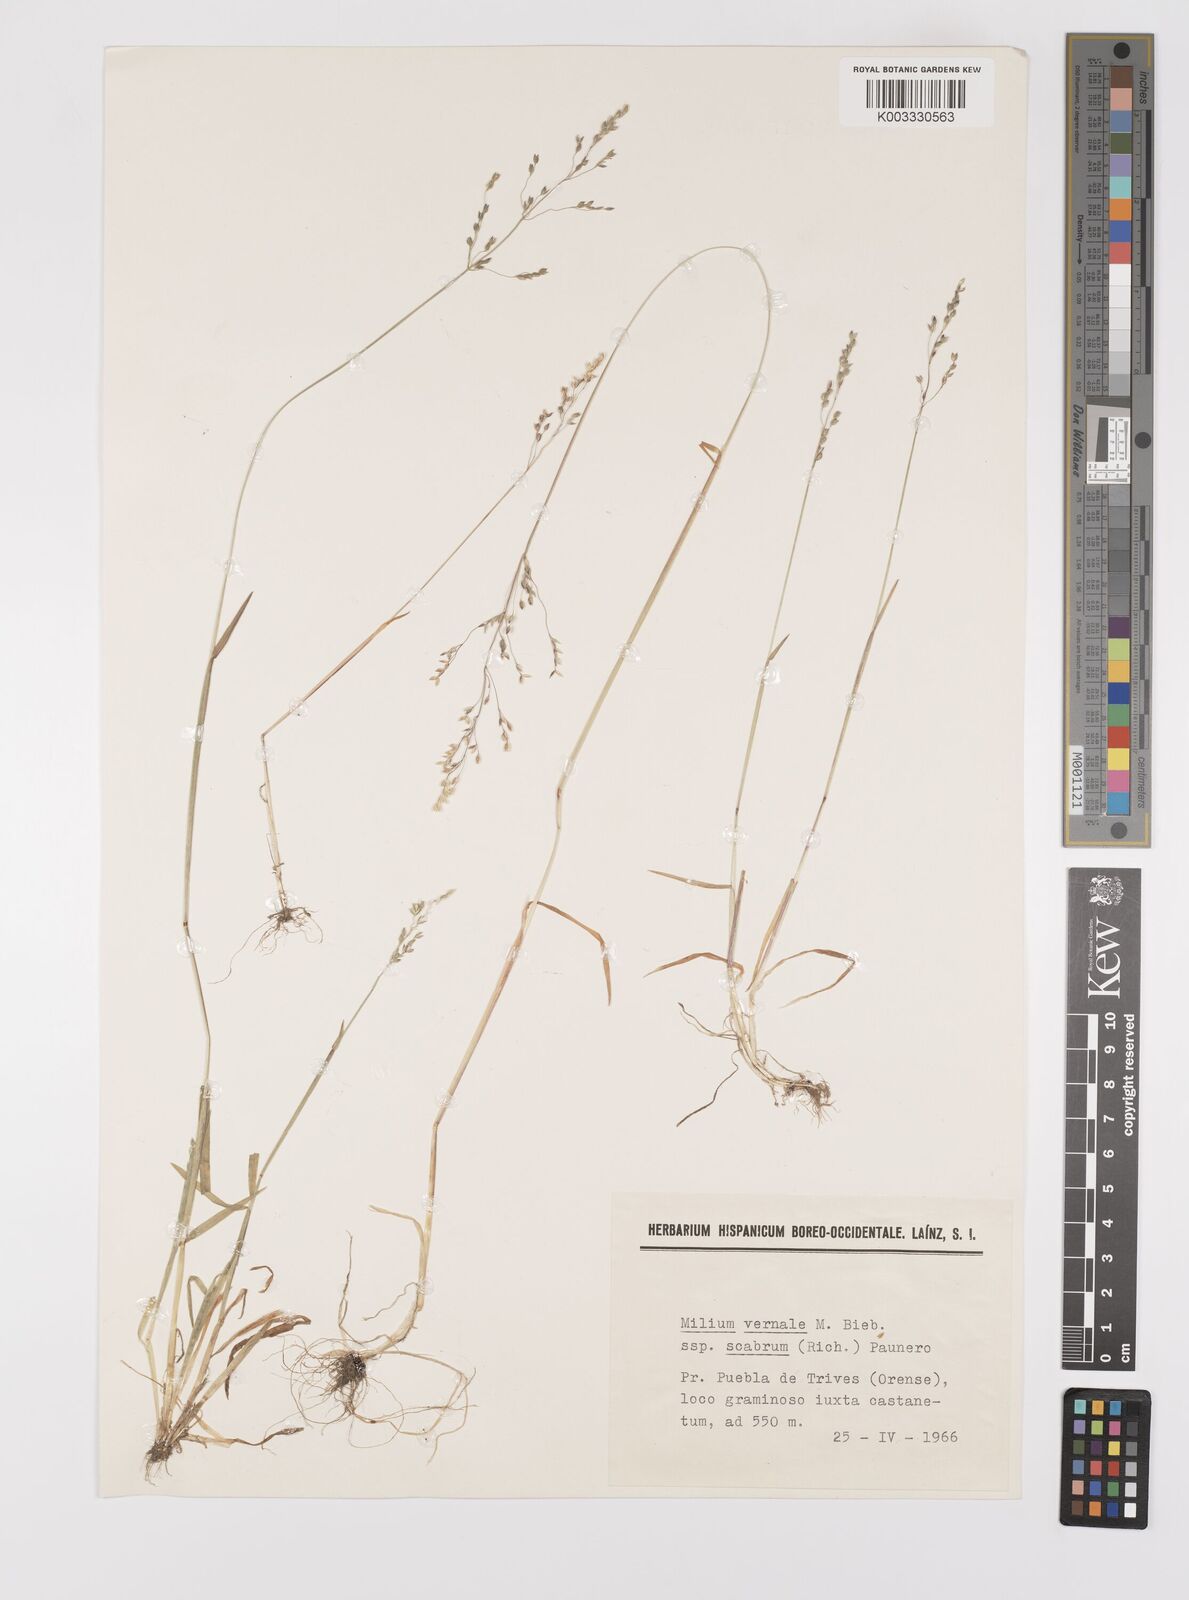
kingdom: Plantae
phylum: Tracheophyta
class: Liliopsida
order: Poales
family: Poaceae
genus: Milium
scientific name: Milium vernale
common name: Early millet
